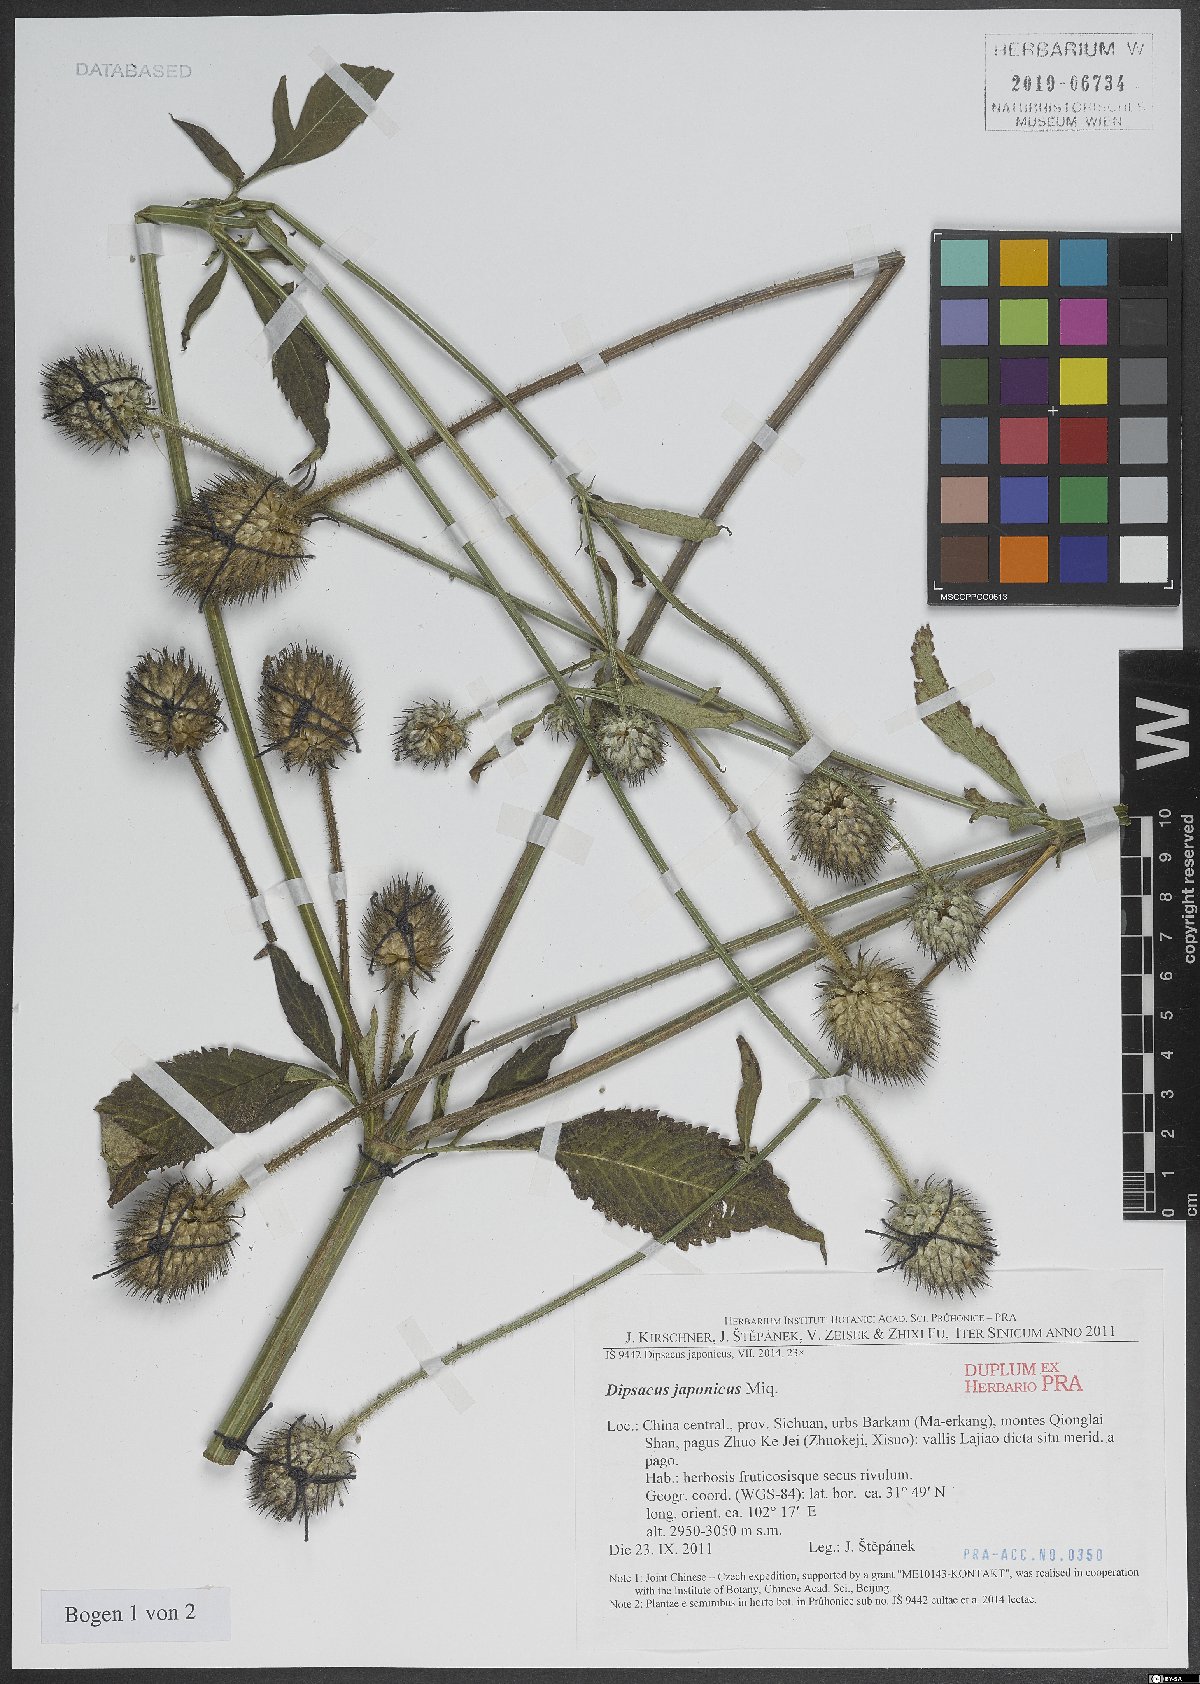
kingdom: Plantae
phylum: Tracheophyta
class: Magnoliopsida
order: Dipsacales
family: Caprifoliaceae
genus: Dipsacus
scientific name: Dipsacus
